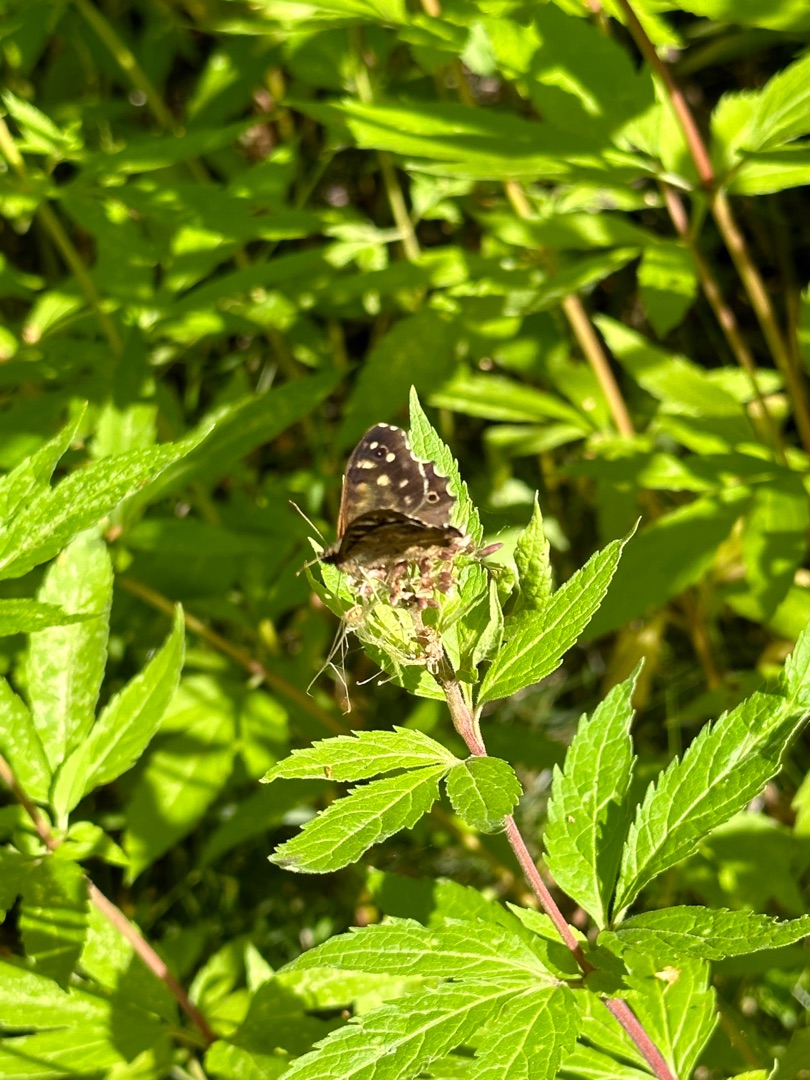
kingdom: Animalia
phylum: Arthropoda
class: Insecta
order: Lepidoptera
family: Nymphalidae
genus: Pararge
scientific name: Pararge aegeria
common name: Skovrandøje
